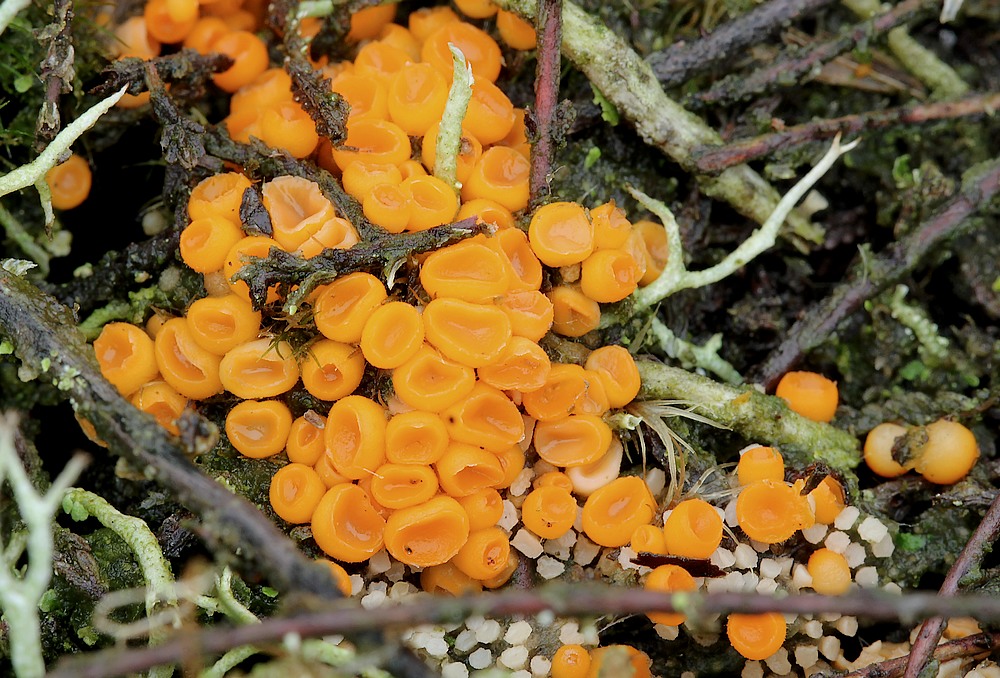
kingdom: Fungi
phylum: Ascomycota
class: Pezizomycetes
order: Pezizales
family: Pyronemataceae
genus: Byssonectria
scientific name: Byssonectria terrestris
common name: hjortebæger
